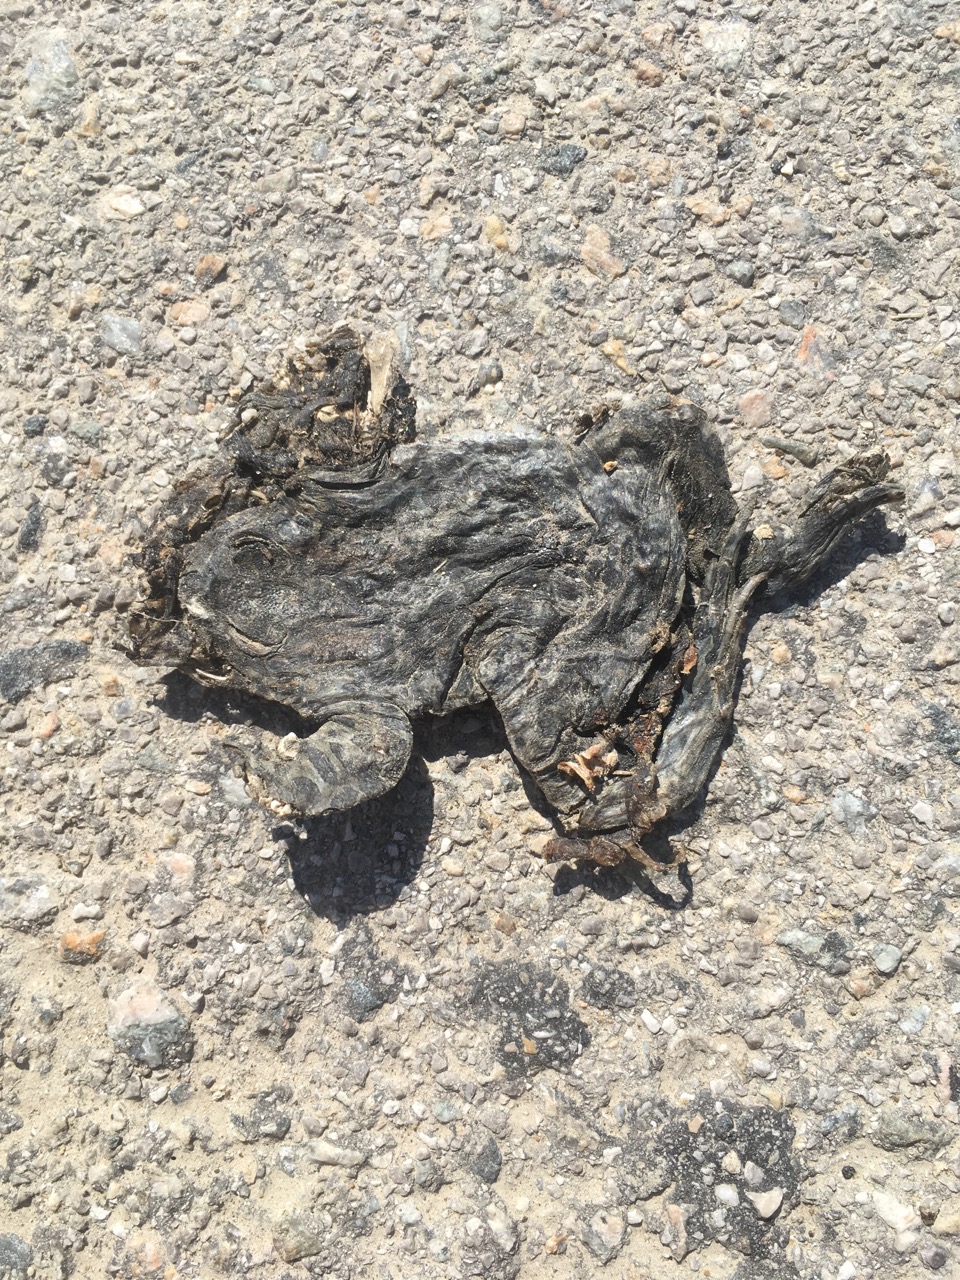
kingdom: Animalia
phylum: Chordata
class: Amphibia
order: Anura
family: Bufonidae
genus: Bufotes
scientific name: Bufotes viridis
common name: European green toad
